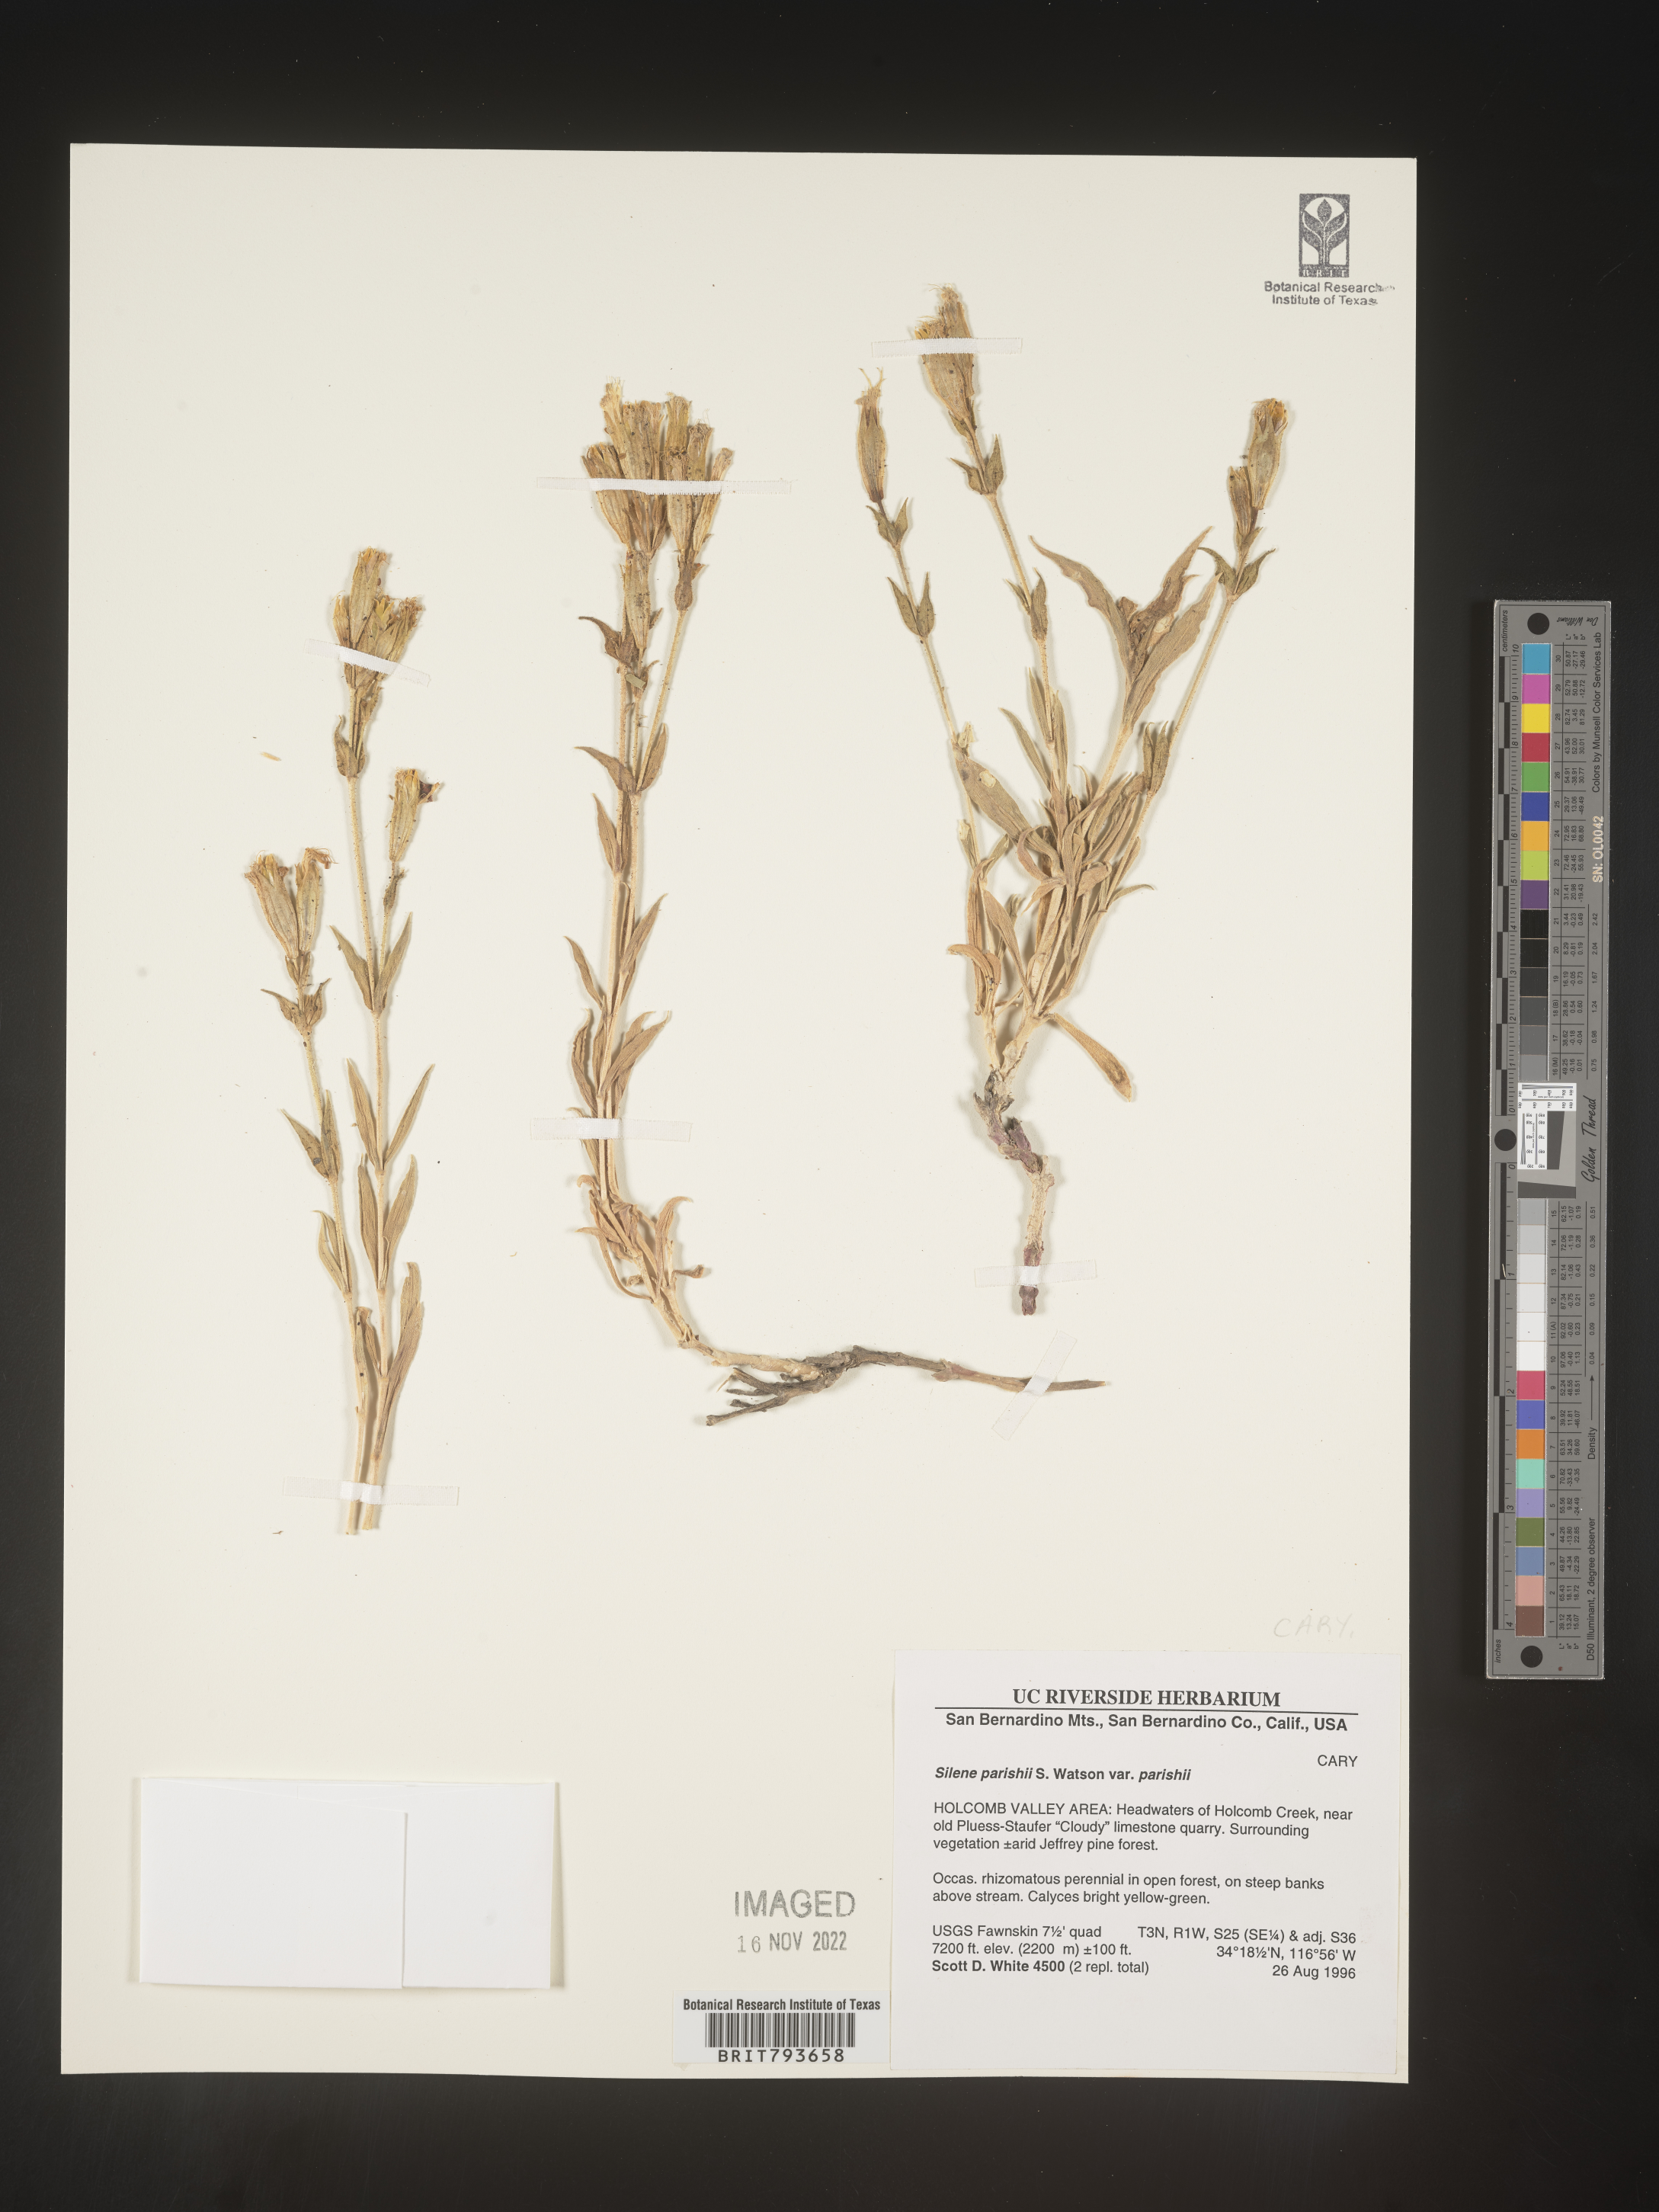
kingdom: Plantae
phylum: Tracheophyta
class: Magnoliopsida
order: Caryophyllales
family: Caryophyllaceae
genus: Silene
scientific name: Silene parishii
